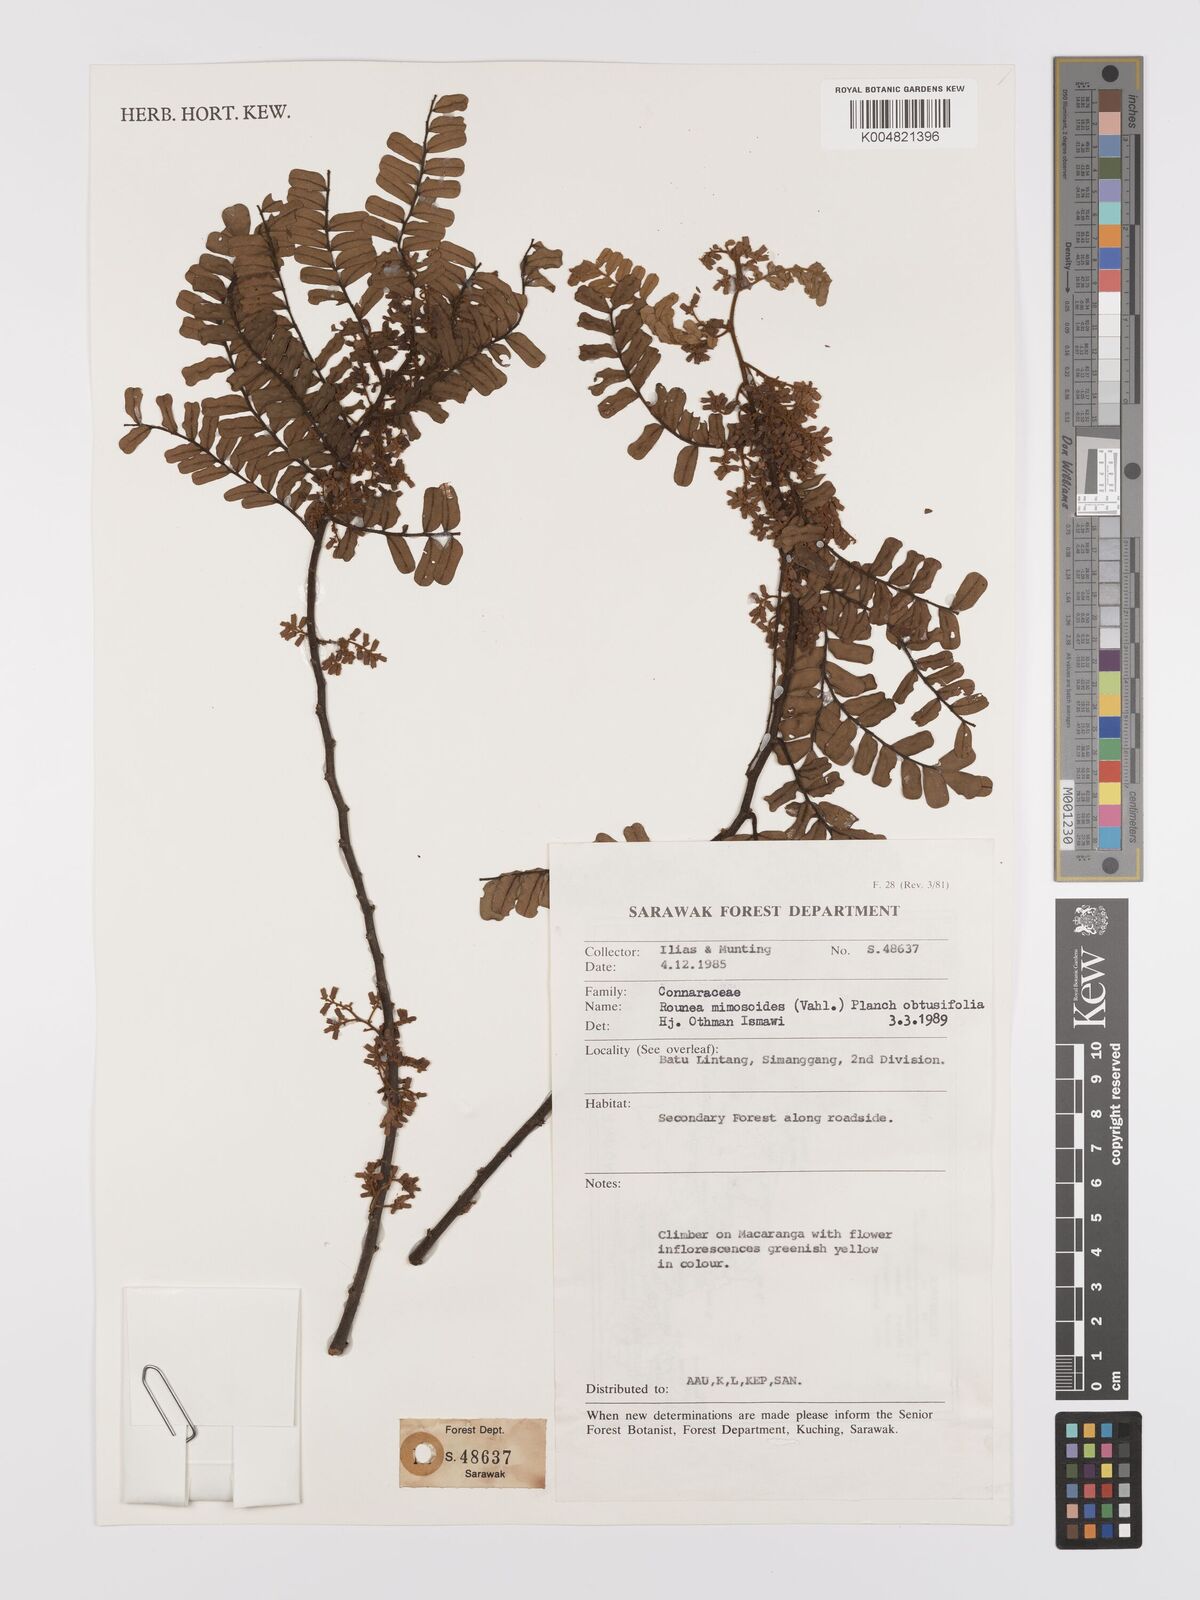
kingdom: Plantae
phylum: Tracheophyta
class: Magnoliopsida
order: Oxalidales
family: Connaraceae
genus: Rourea
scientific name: Rourea mimosoides
